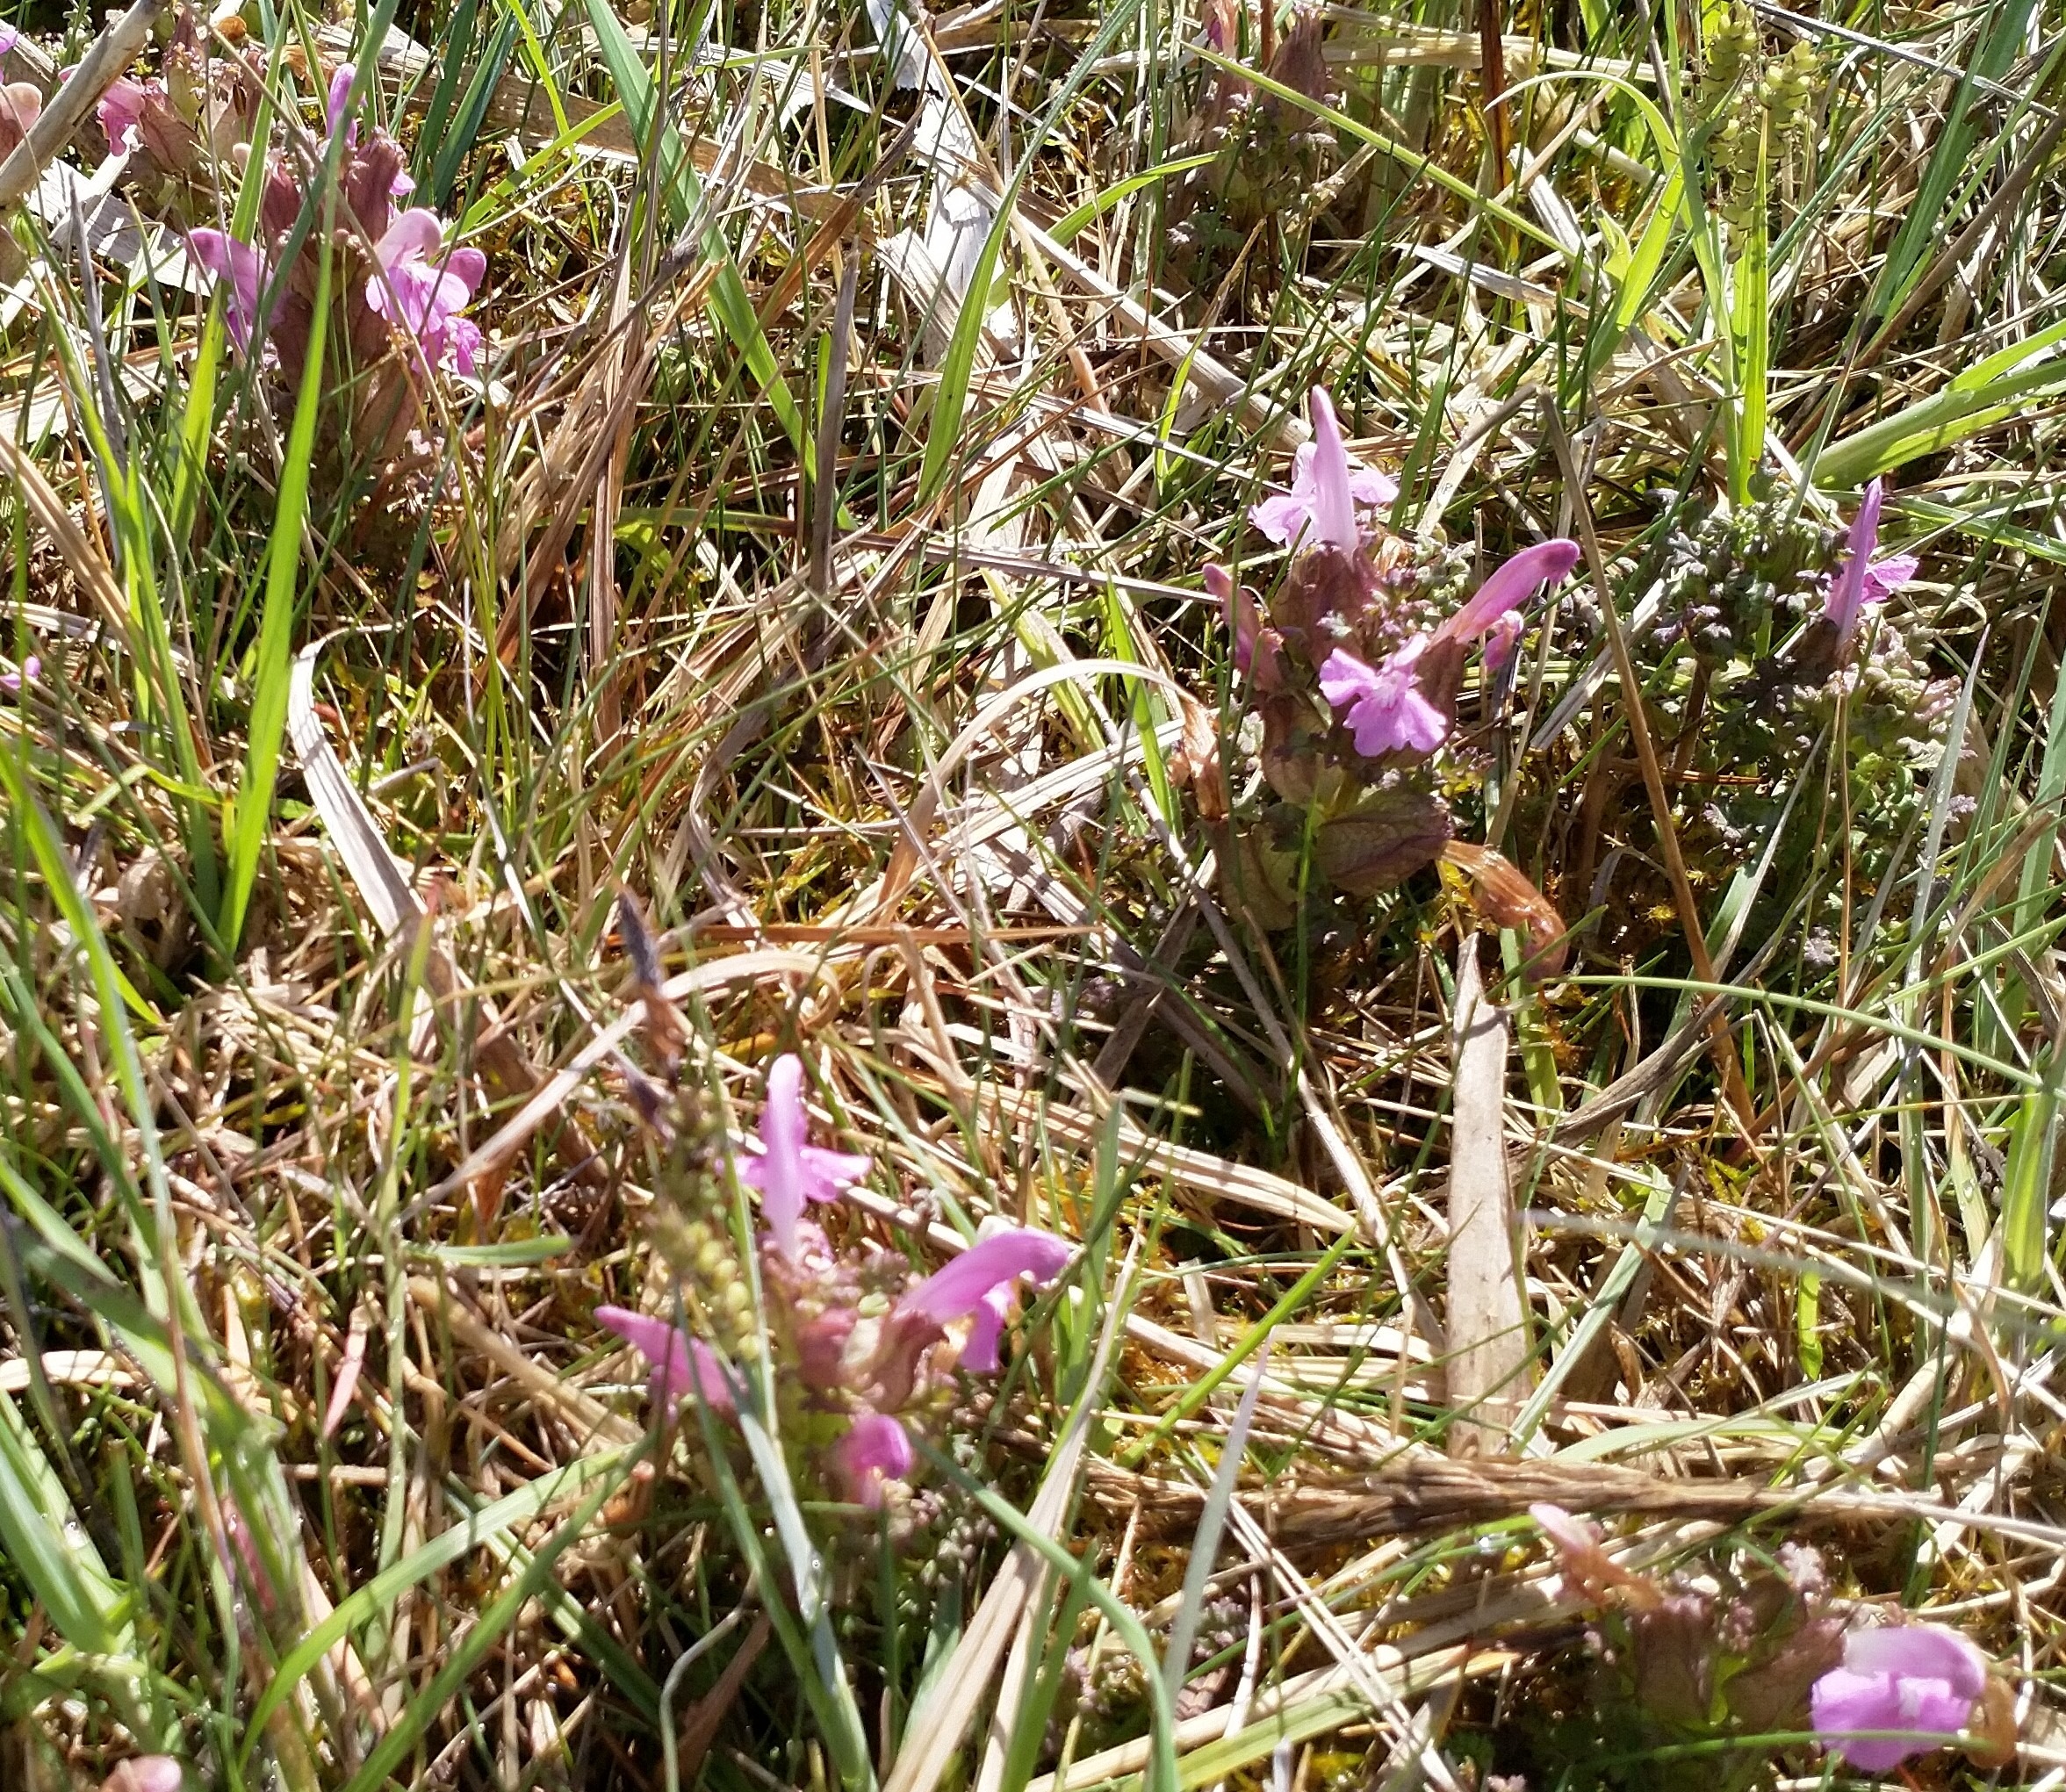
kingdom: Plantae
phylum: Tracheophyta
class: Magnoliopsida
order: Lamiales
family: Orobanchaceae
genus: Pedicularis
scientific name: Pedicularis sylvatica
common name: Mose-troldurt
